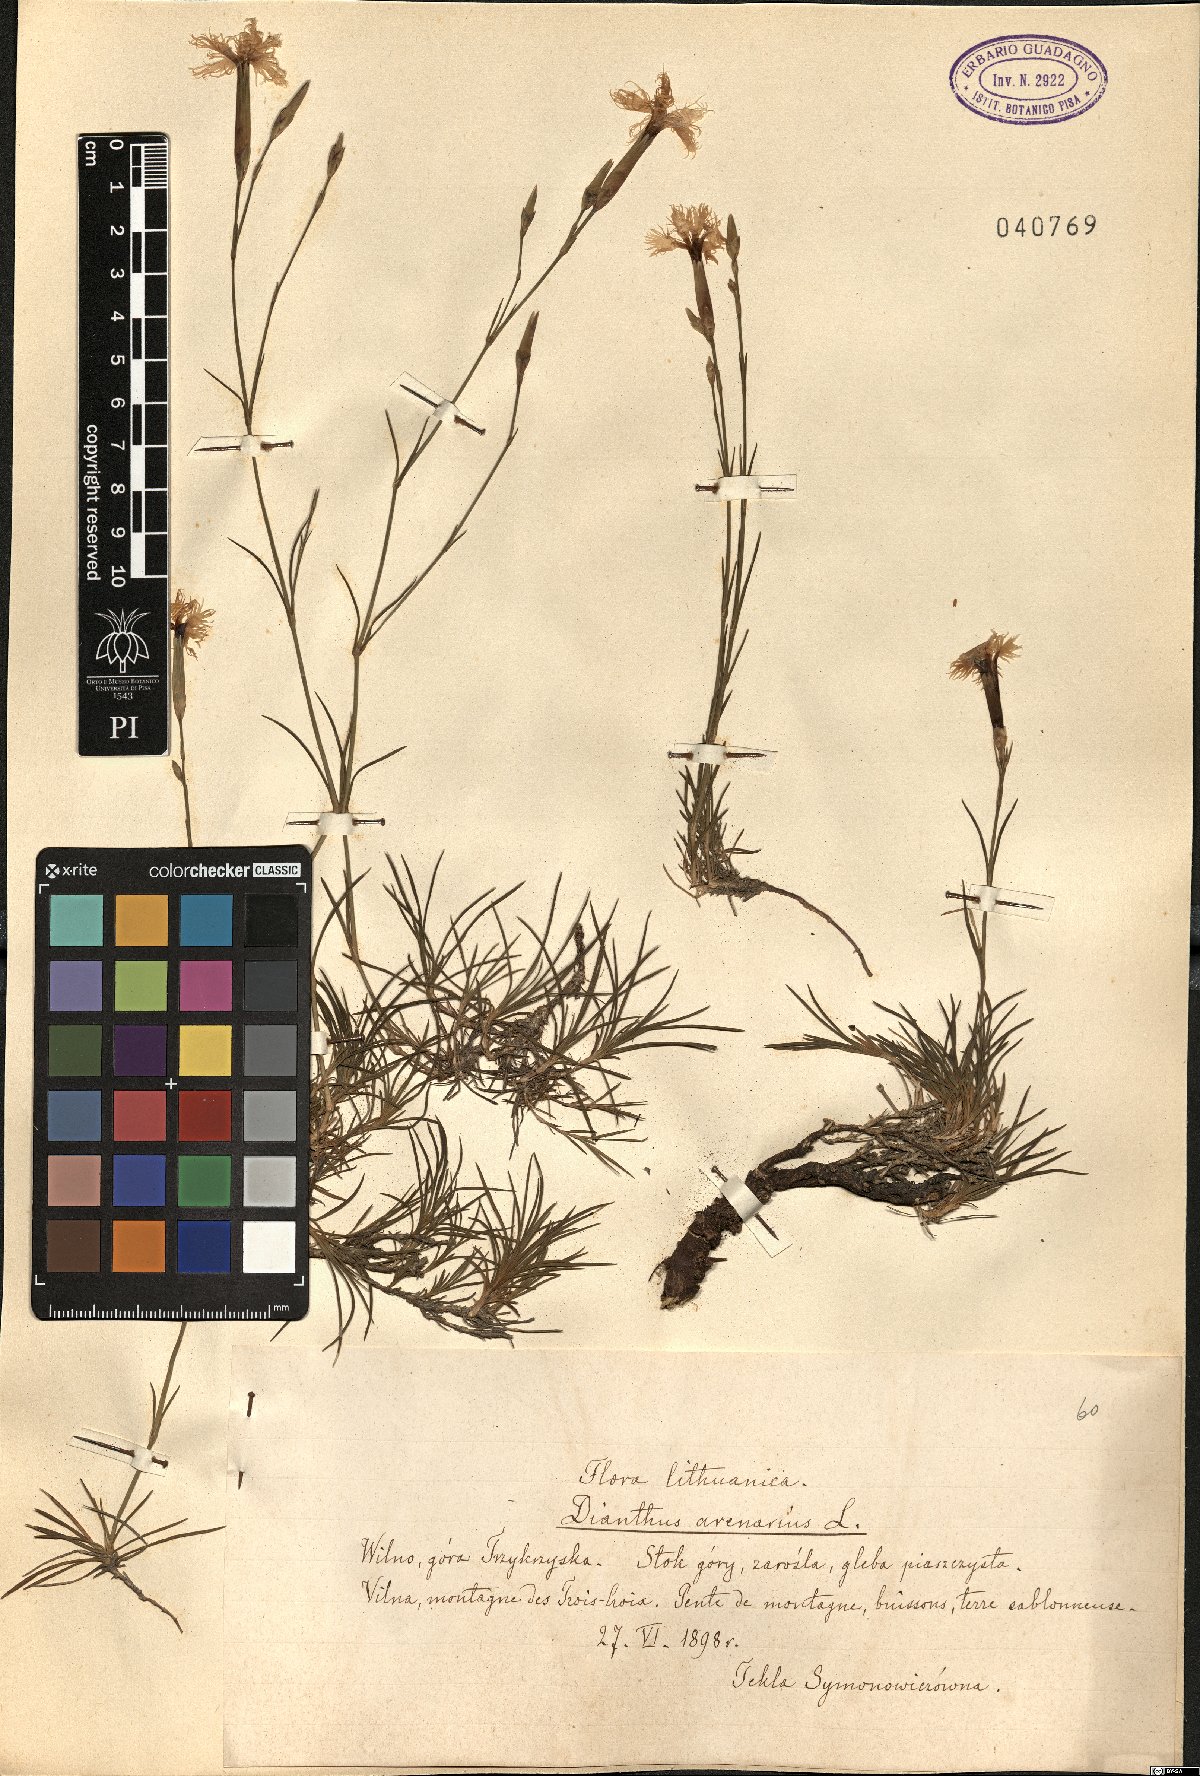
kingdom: Plantae
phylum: Tracheophyta
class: Magnoliopsida
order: Caryophyllales
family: Caryophyllaceae
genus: Dianthus
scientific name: Dianthus arenarius
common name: Stone pink
